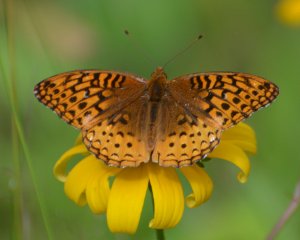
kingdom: Animalia
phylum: Arthropoda
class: Insecta
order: Lepidoptera
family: Nymphalidae
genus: Speyeria
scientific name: Speyeria cybele
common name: Great Spangled Fritillary
